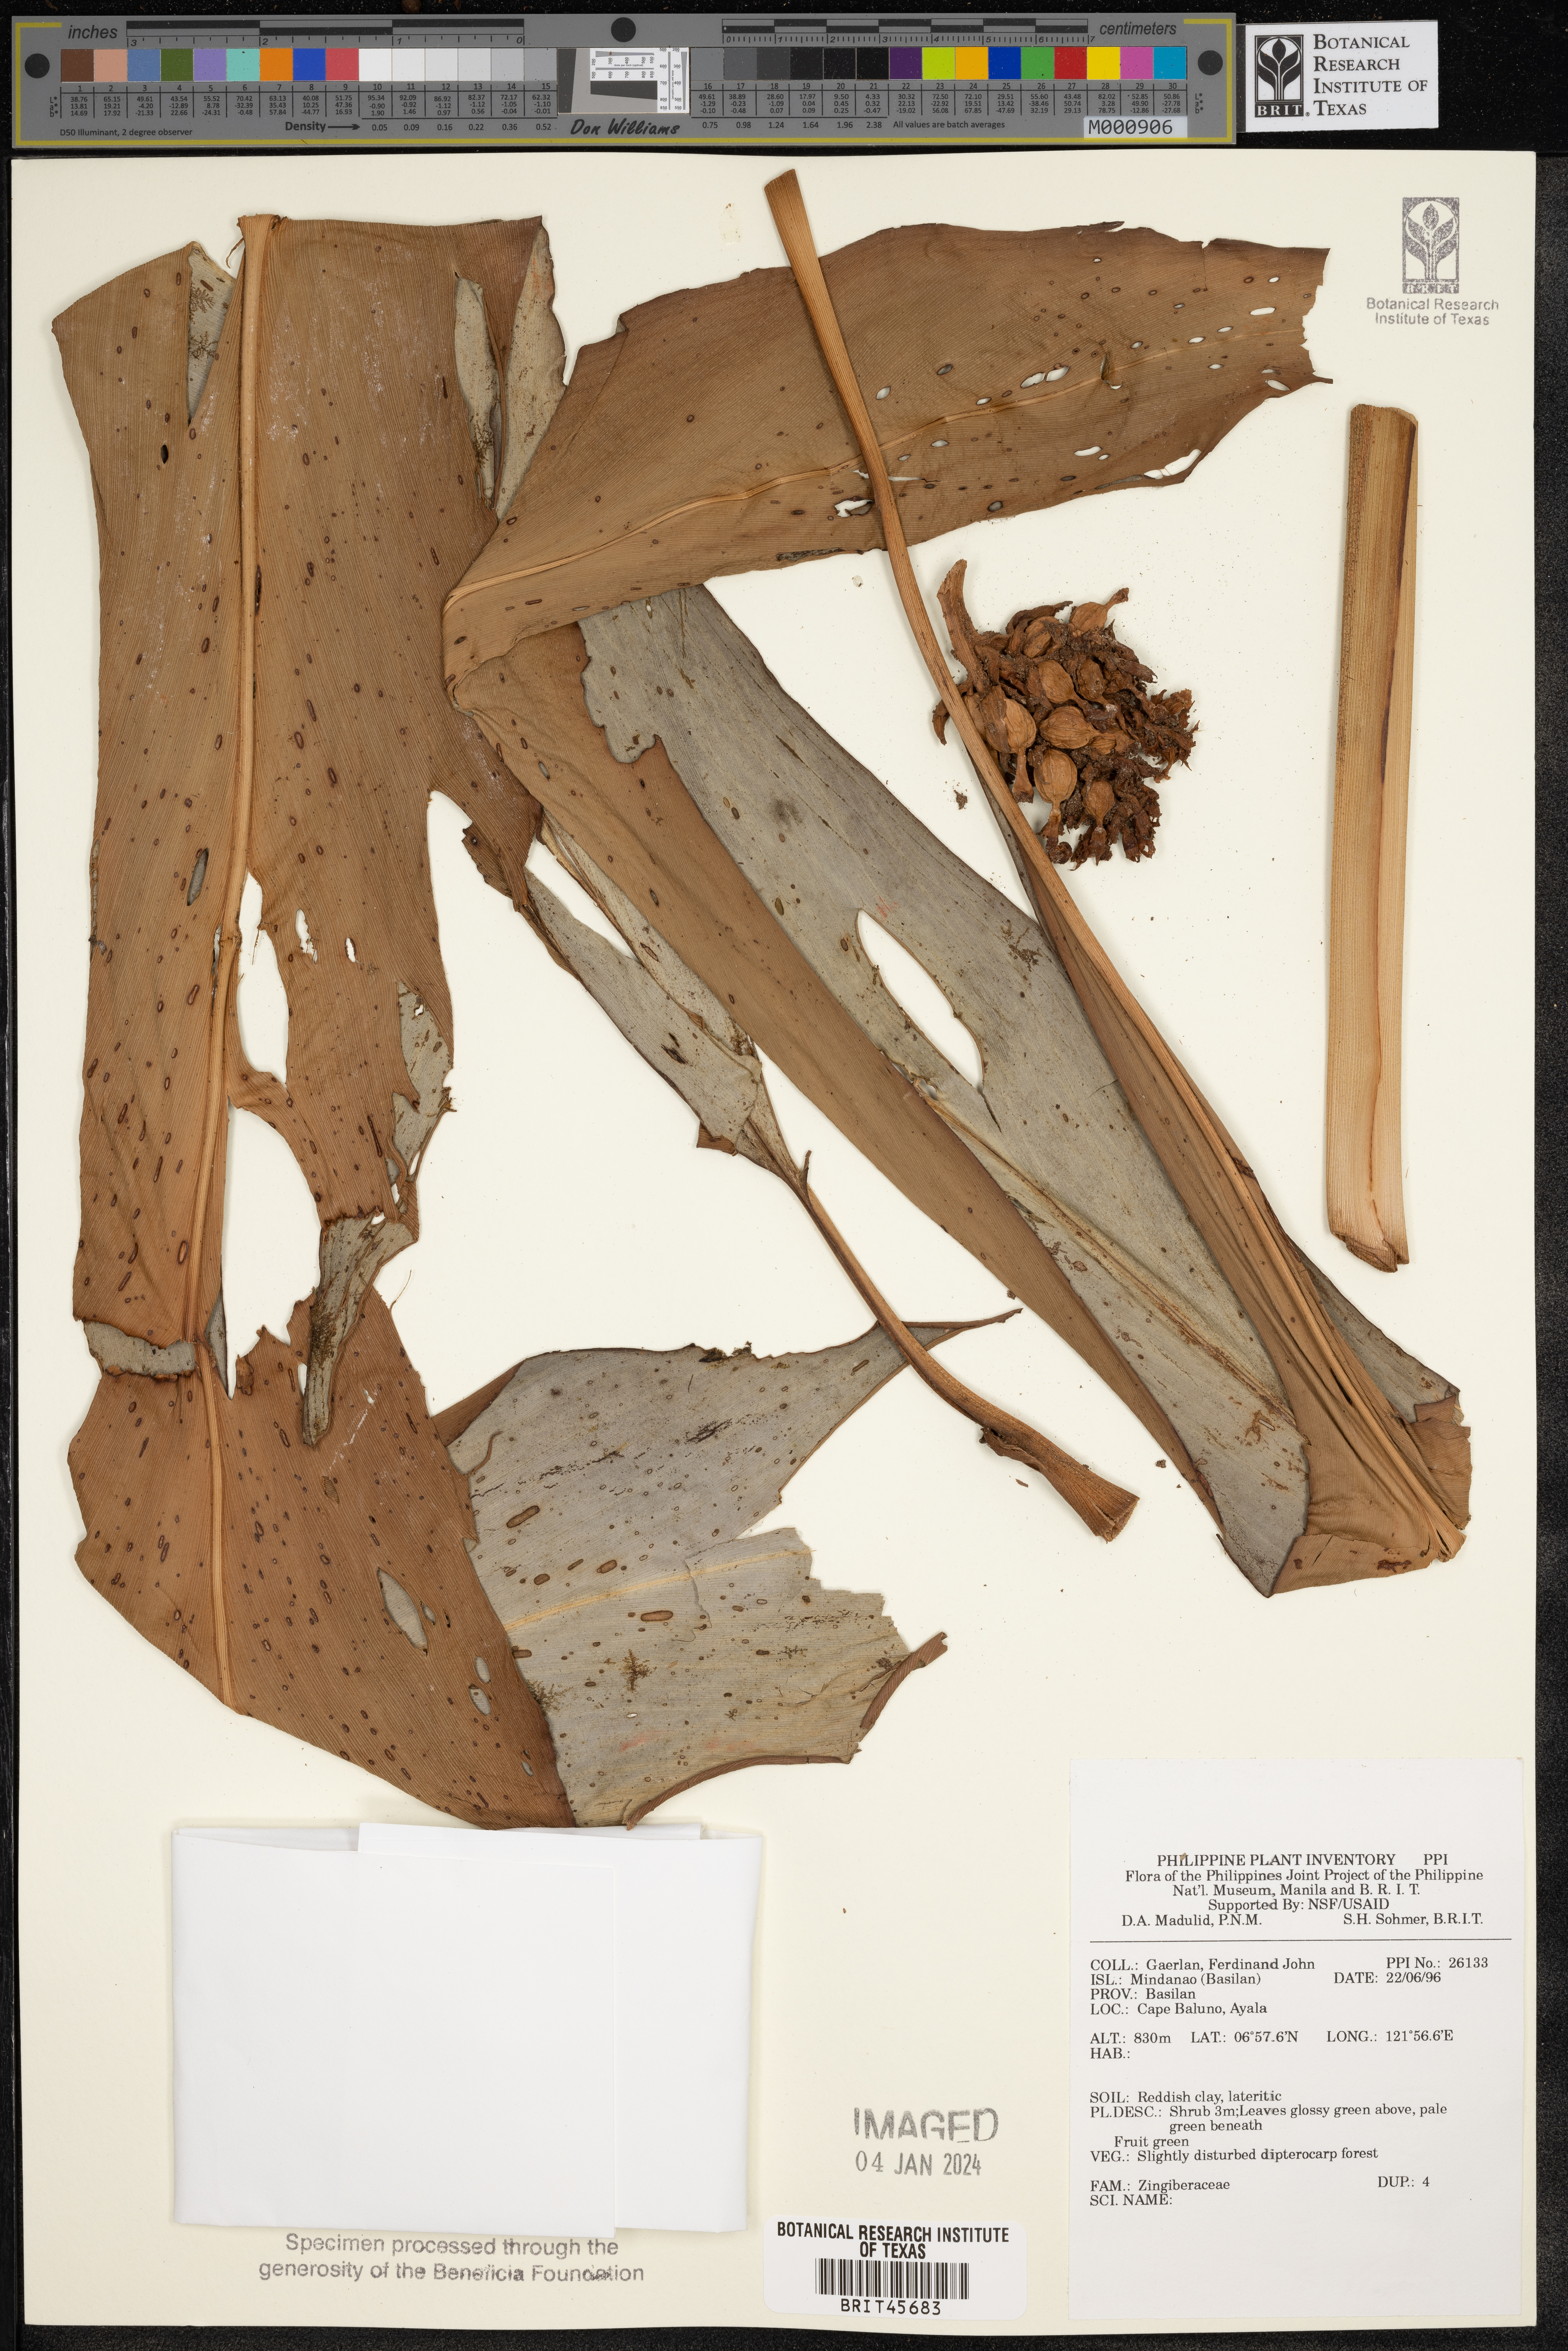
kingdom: Plantae
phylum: Tracheophyta
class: Liliopsida
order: Zingiberales
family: Zingiberaceae
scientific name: Zingiberaceae
